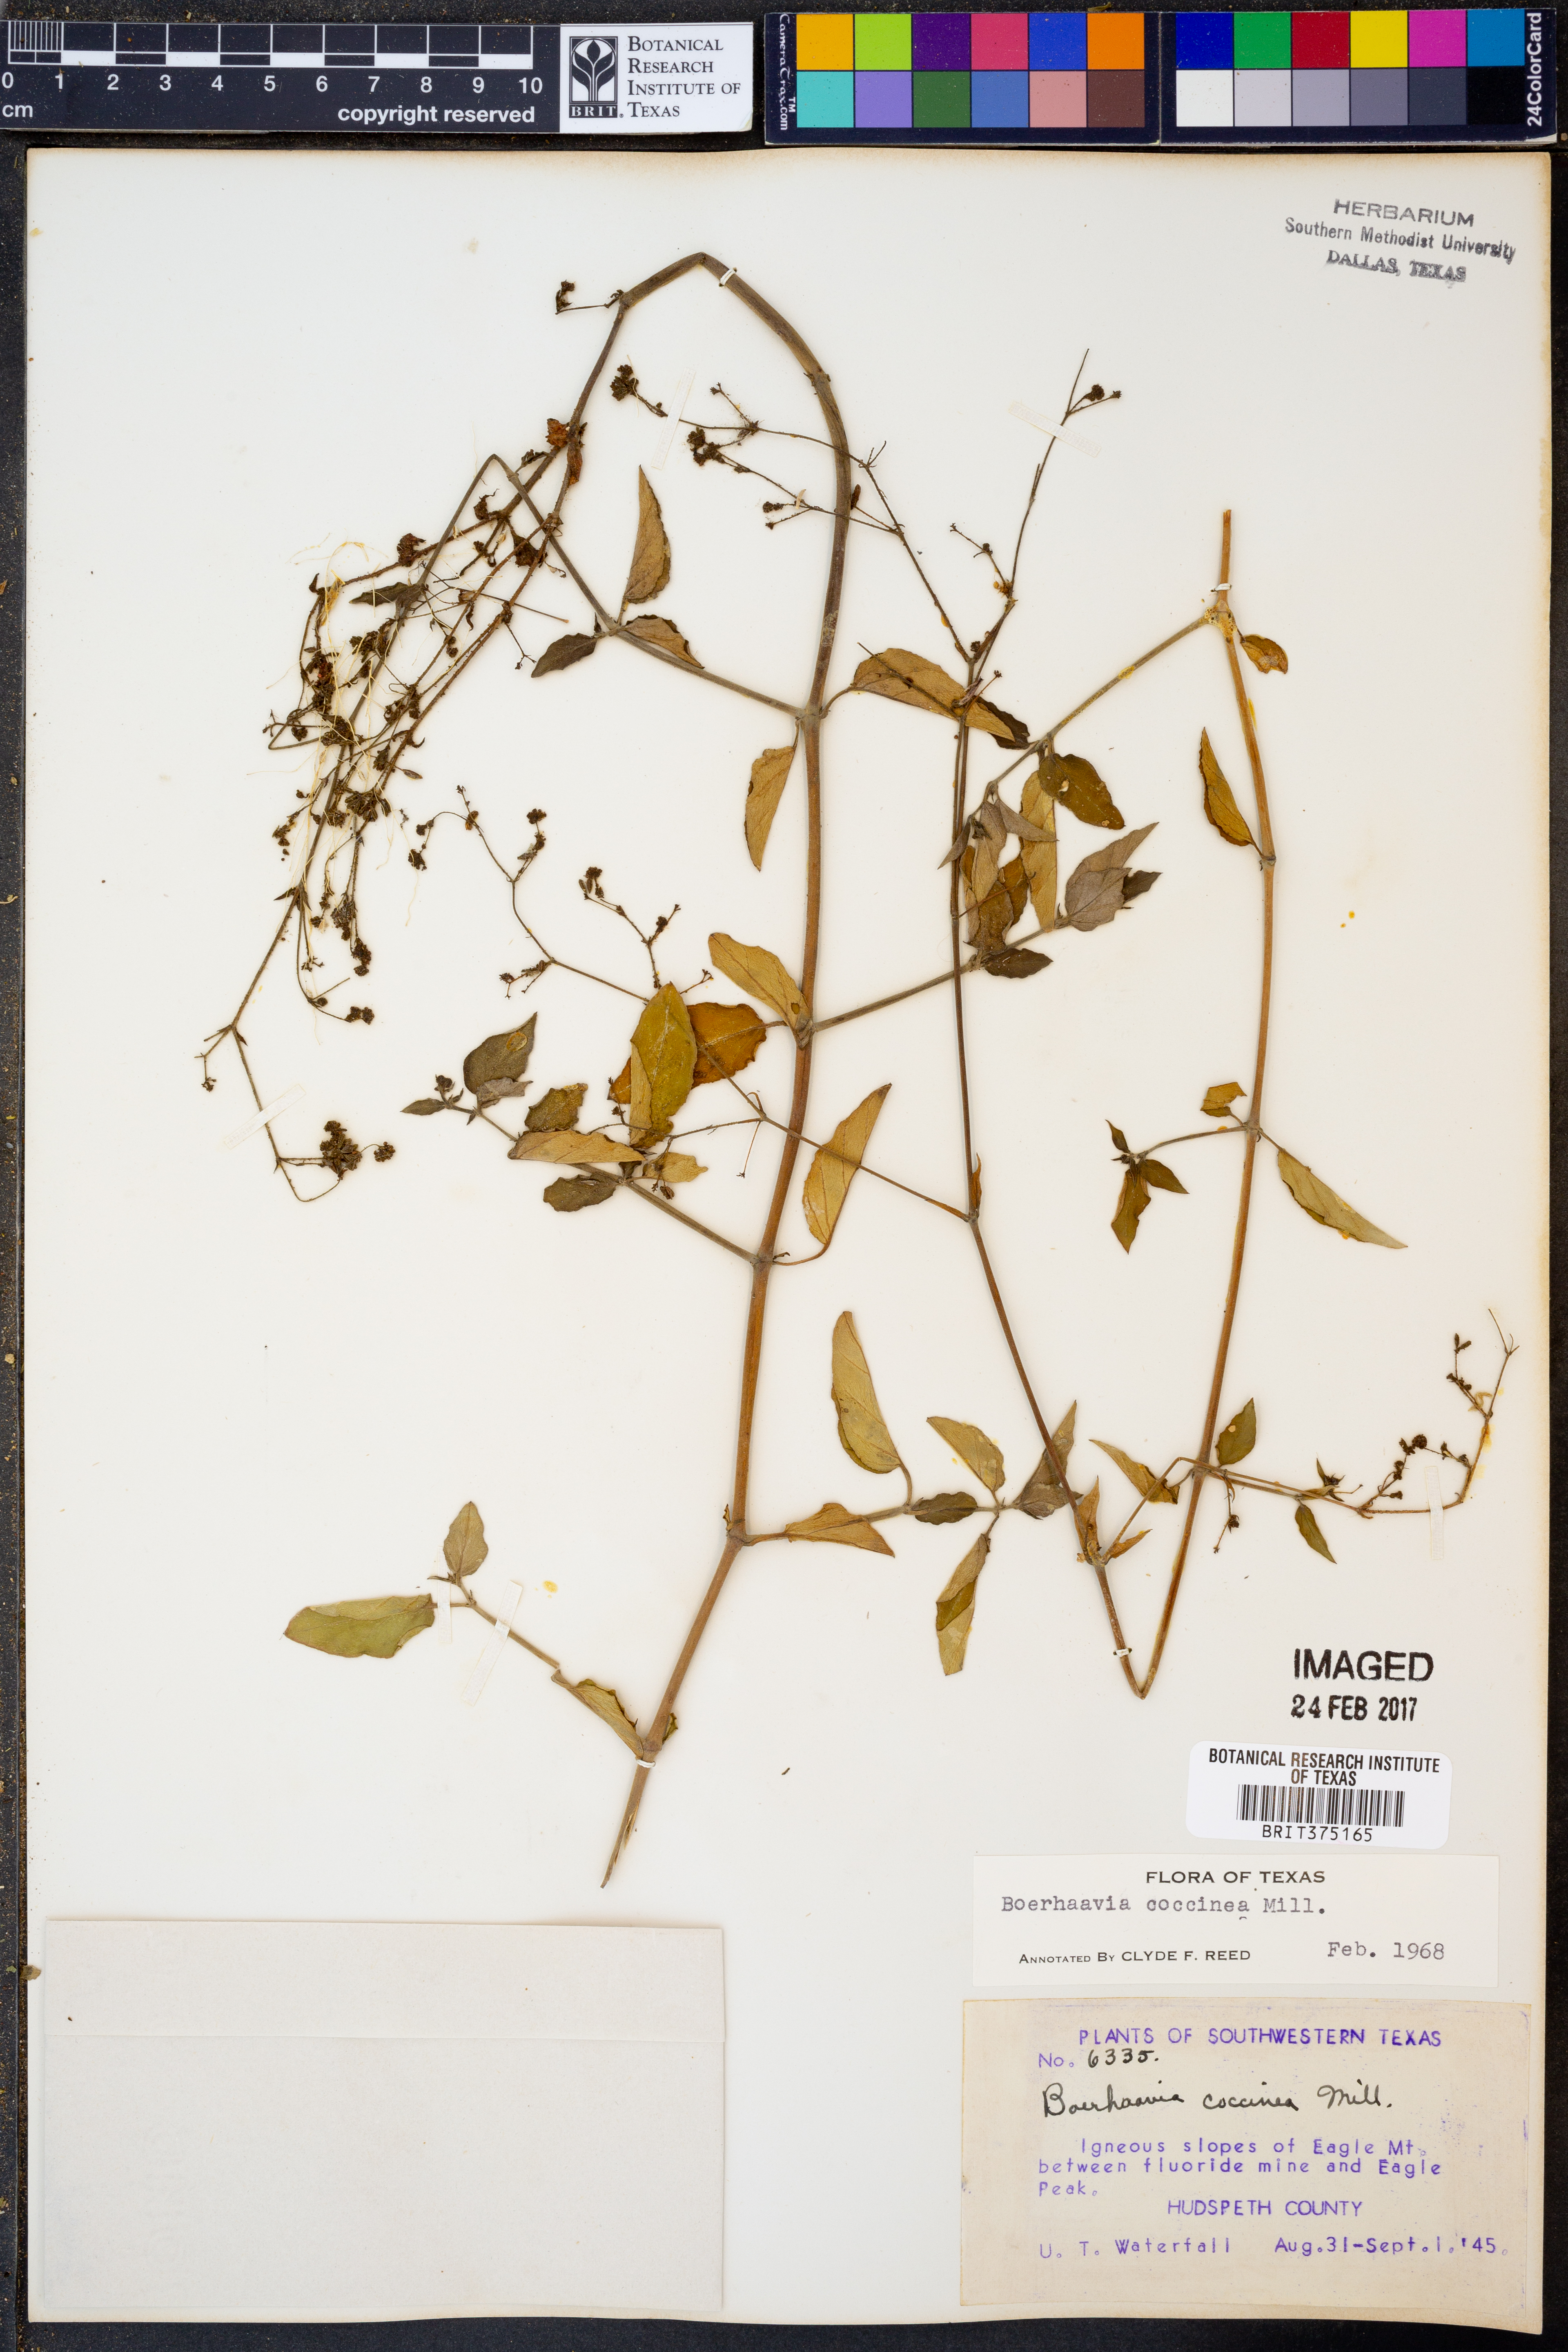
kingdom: Plantae
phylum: Tracheophyta
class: Magnoliopsida
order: Caryophyllales
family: Nyctaginaceae
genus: Boerhavia
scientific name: Boerhavia coccinea
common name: Scarlet spiderling
